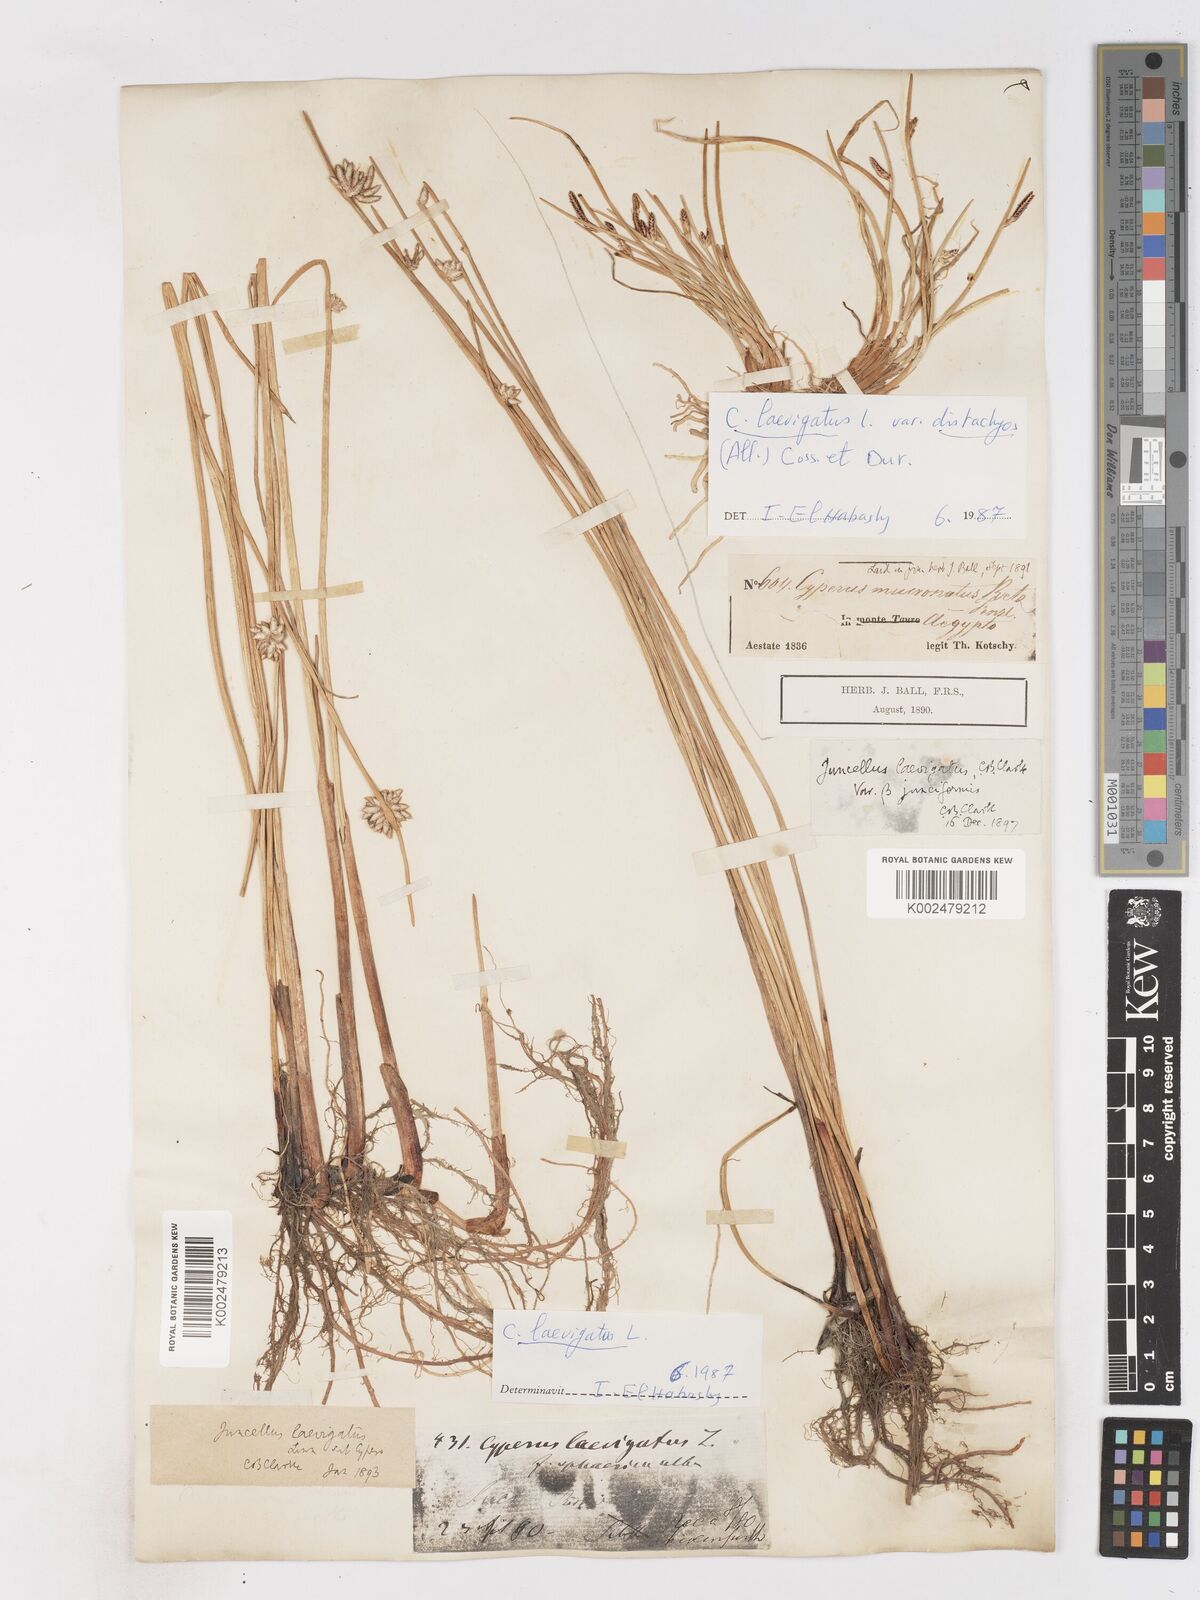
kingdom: Plantae
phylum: Tracheophyta
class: Liliopsida
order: Poales
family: Cyperaceae
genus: Cyperus
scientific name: Cyperus laevigatus
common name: Smooth flat sedge
